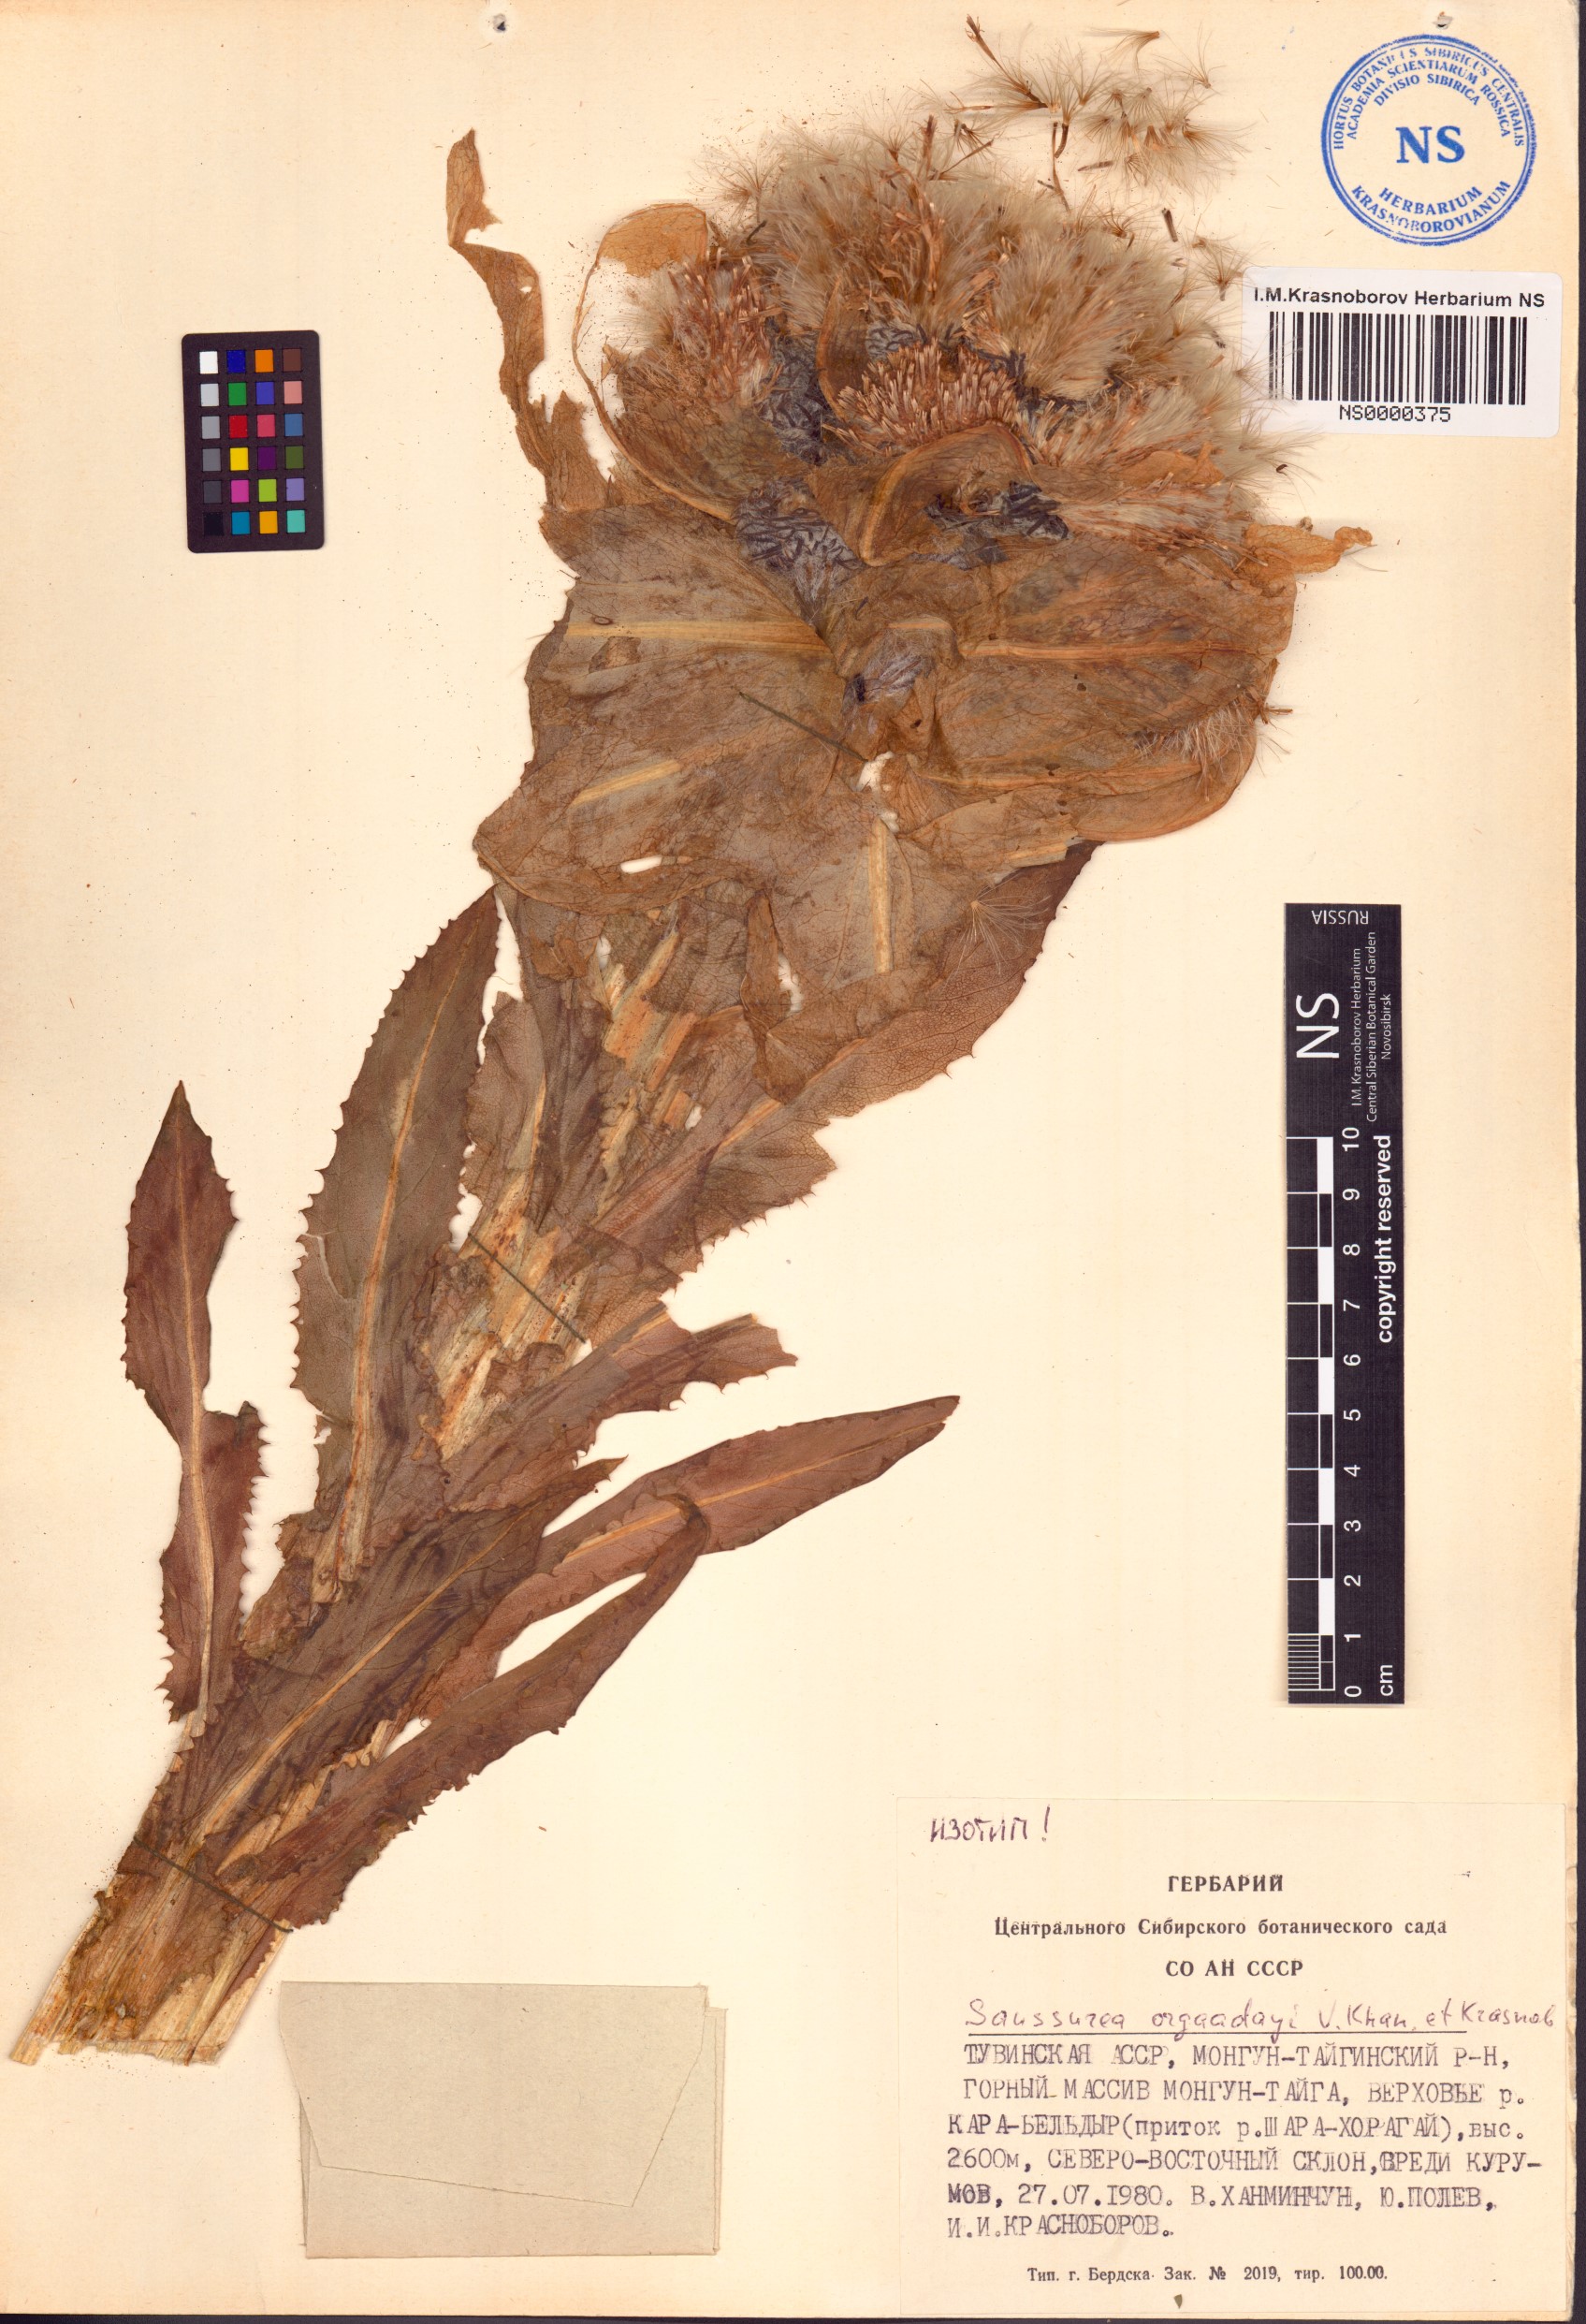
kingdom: Plantae
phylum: Tracheophyta
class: Magnoliopsida
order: Asterales
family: Asteraceae
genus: Saussurea
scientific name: Saussurea orgaadayi
